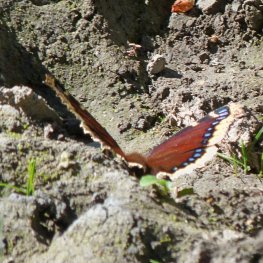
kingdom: Animalia
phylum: Arthropoda
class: Insecta
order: Lepidoptera
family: Nymphalidae
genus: Nymphalis
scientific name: Nymphalis antiopa
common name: Mourning Cloak
